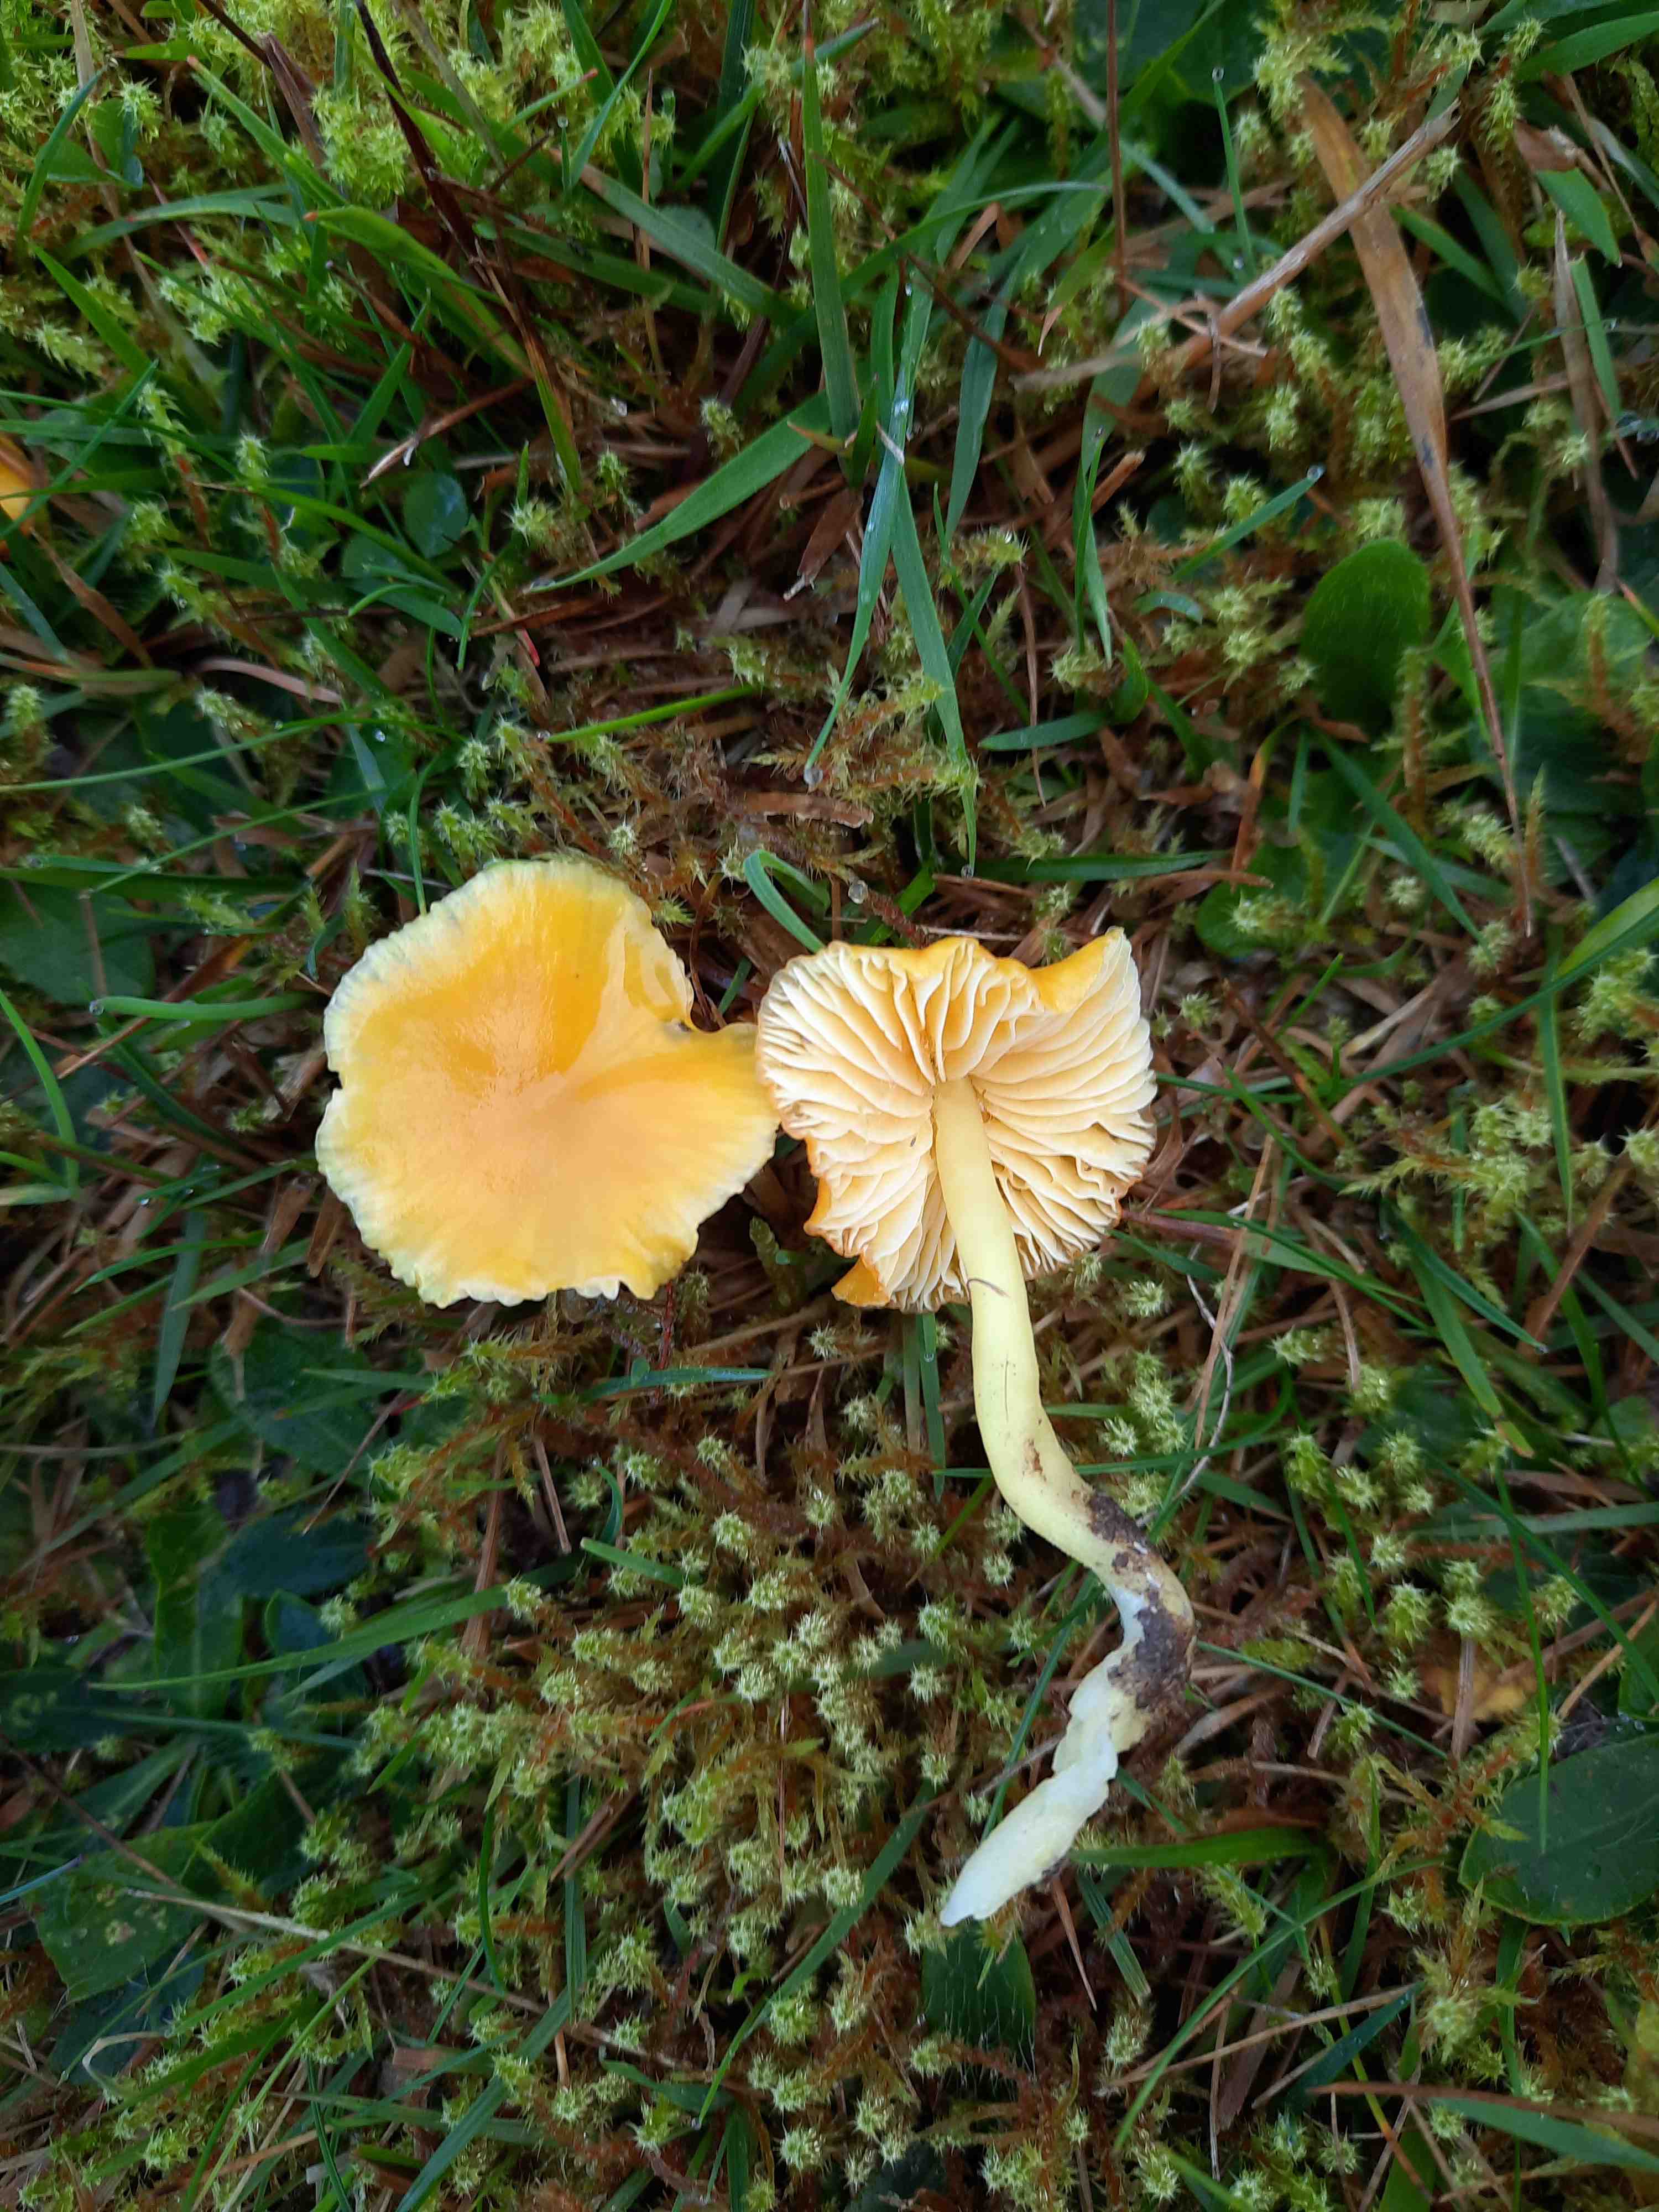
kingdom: Fungi
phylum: Basidiomycota
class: Agaricomycetes
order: Agaricales
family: Hygrophoraceae
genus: Hygrocybe
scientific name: Hygrocybe ceracea
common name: voksgul vokshat
